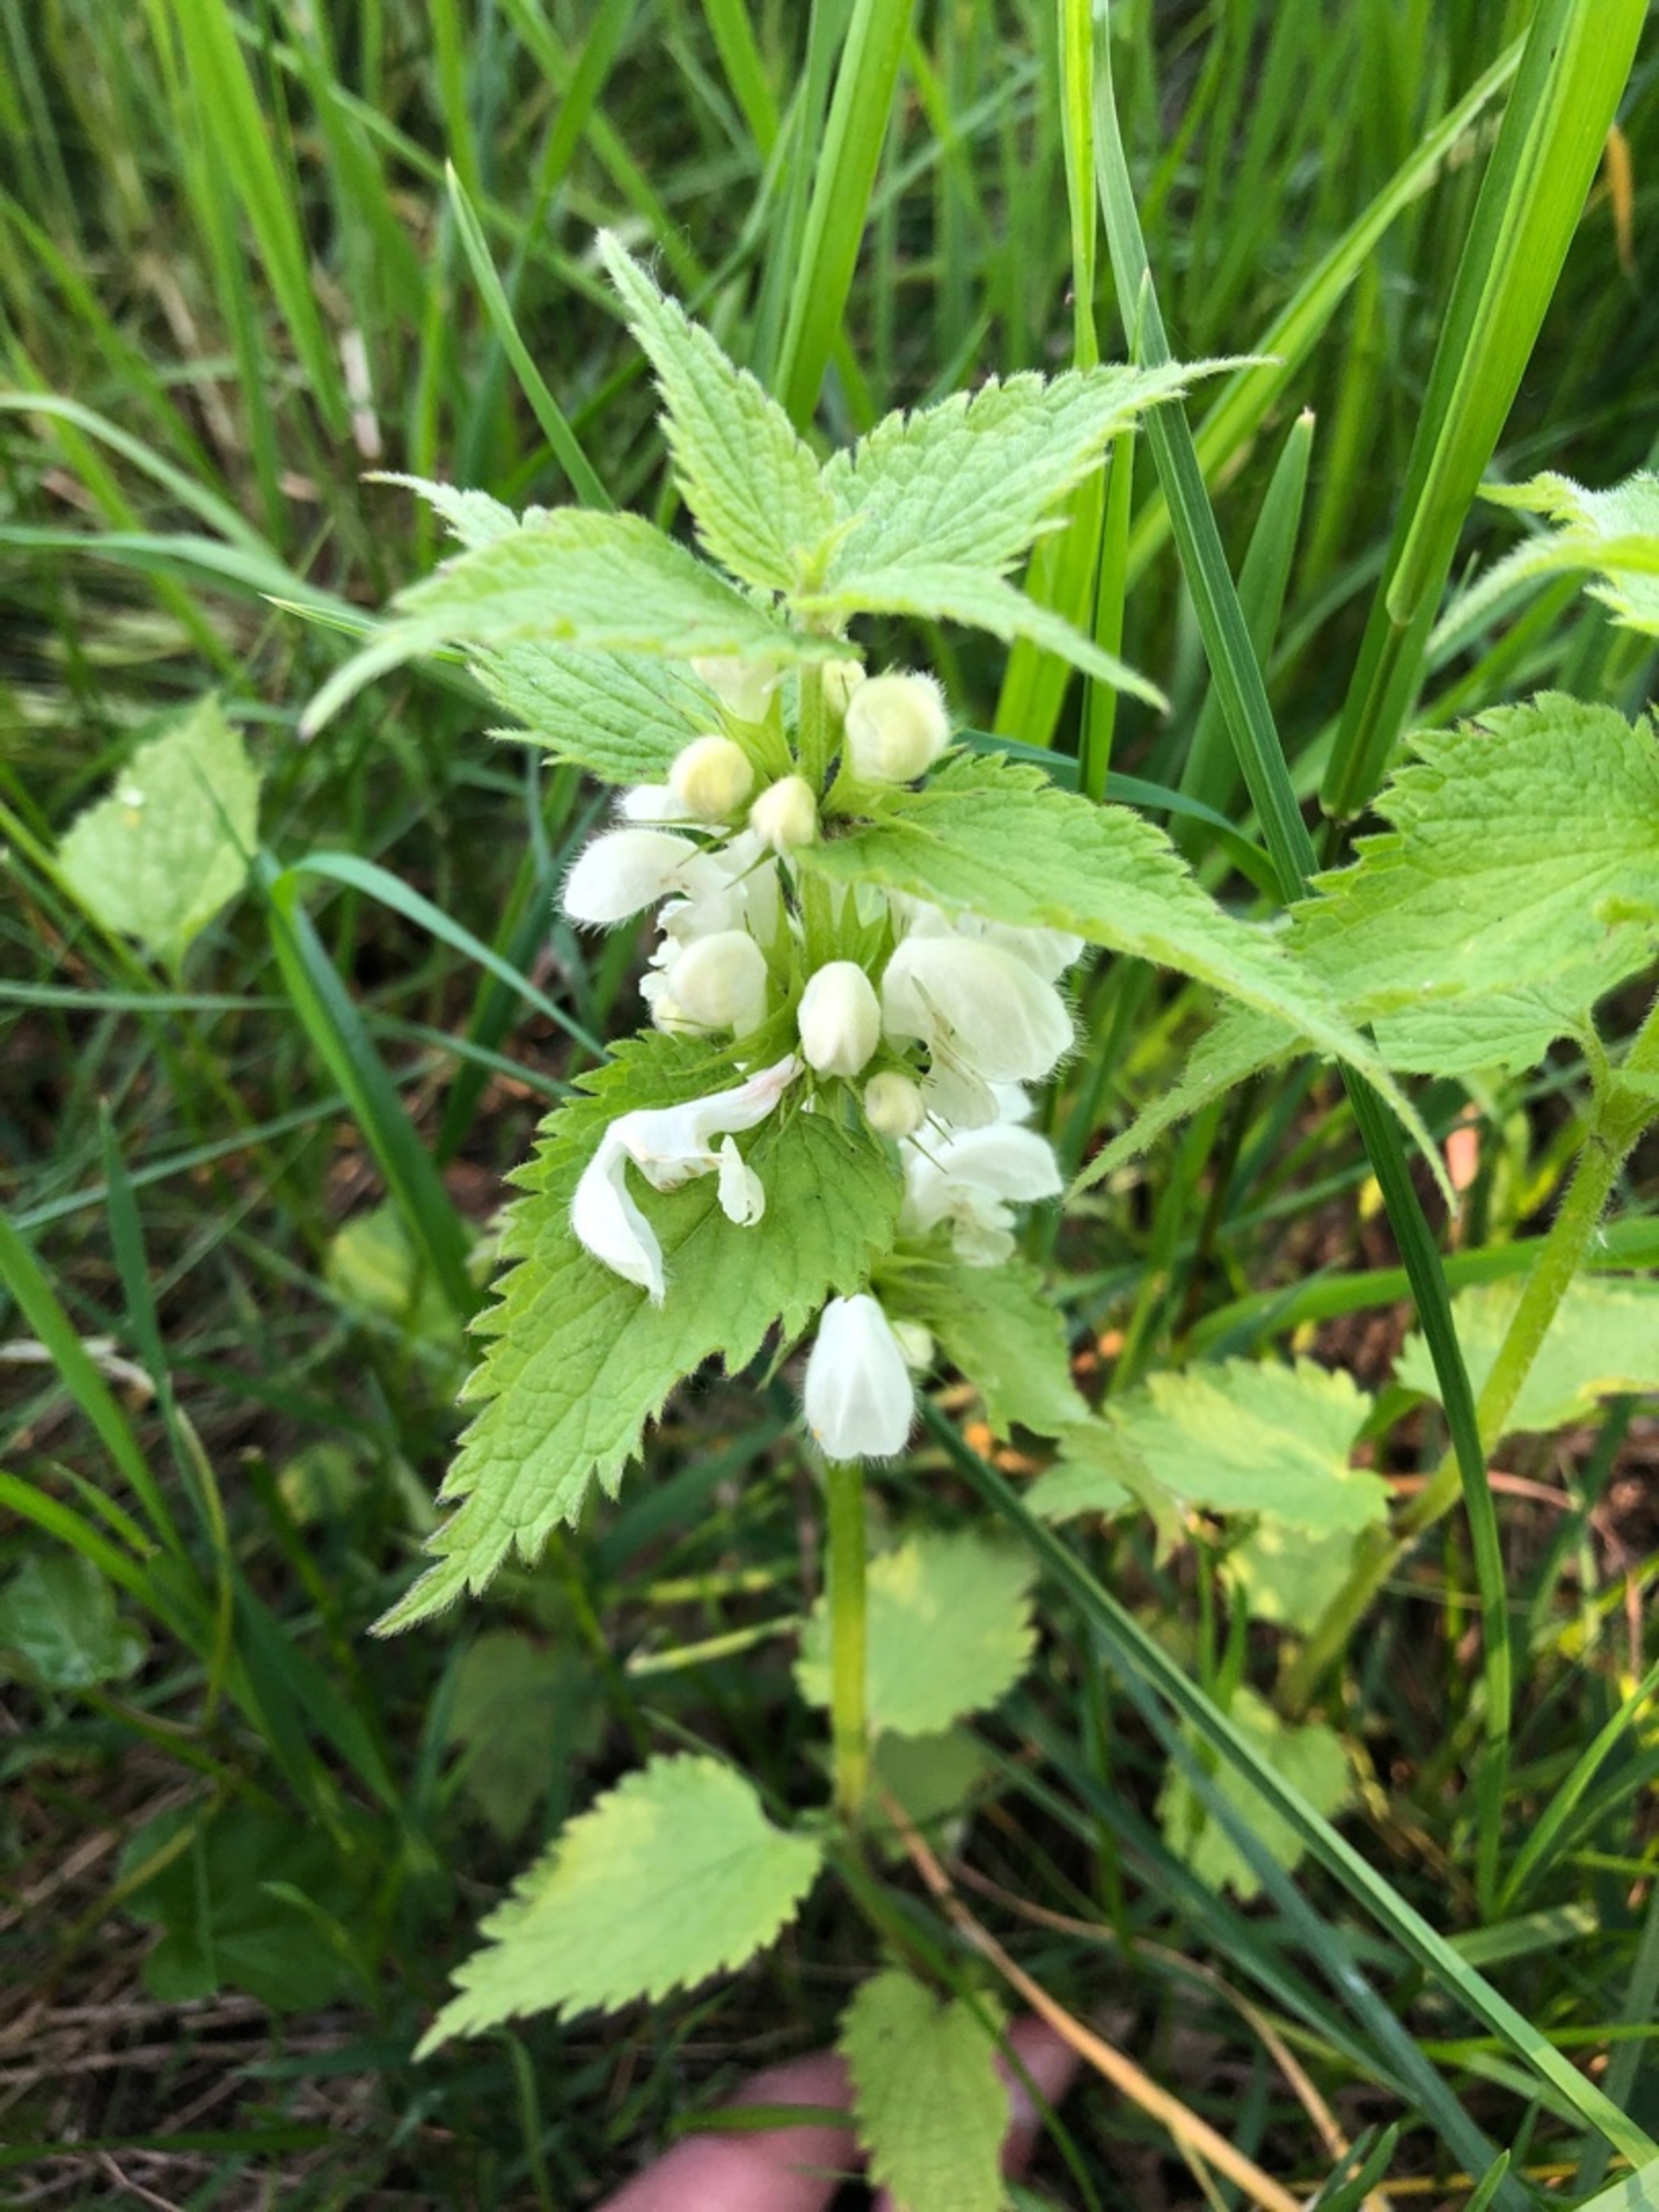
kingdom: Plantae
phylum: Tracheophyta
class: Magnoliopsida
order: Lamiales
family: Lamiaceae
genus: Lamium
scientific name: Lamium album
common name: Døvnælde
